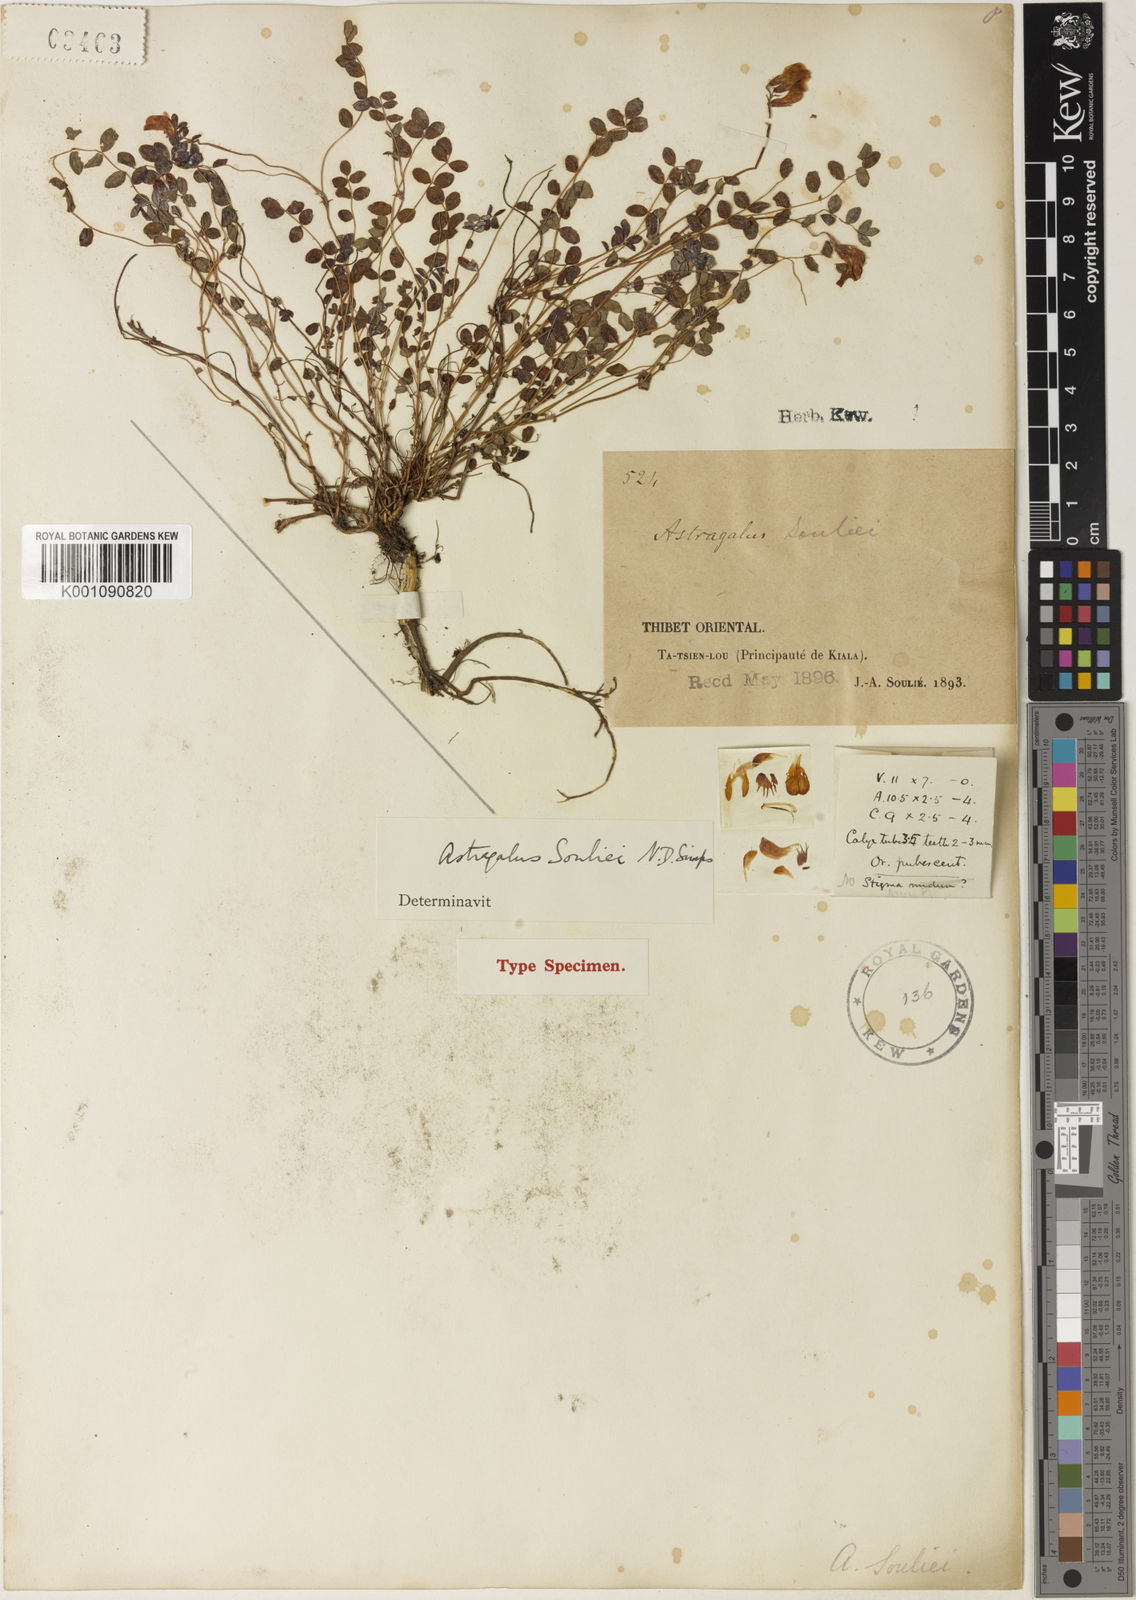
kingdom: Plantae
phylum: Tracheophyta
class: Magnoliopsida
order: Fabales
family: Fabaceae
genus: Astragalus
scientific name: Astragalus
